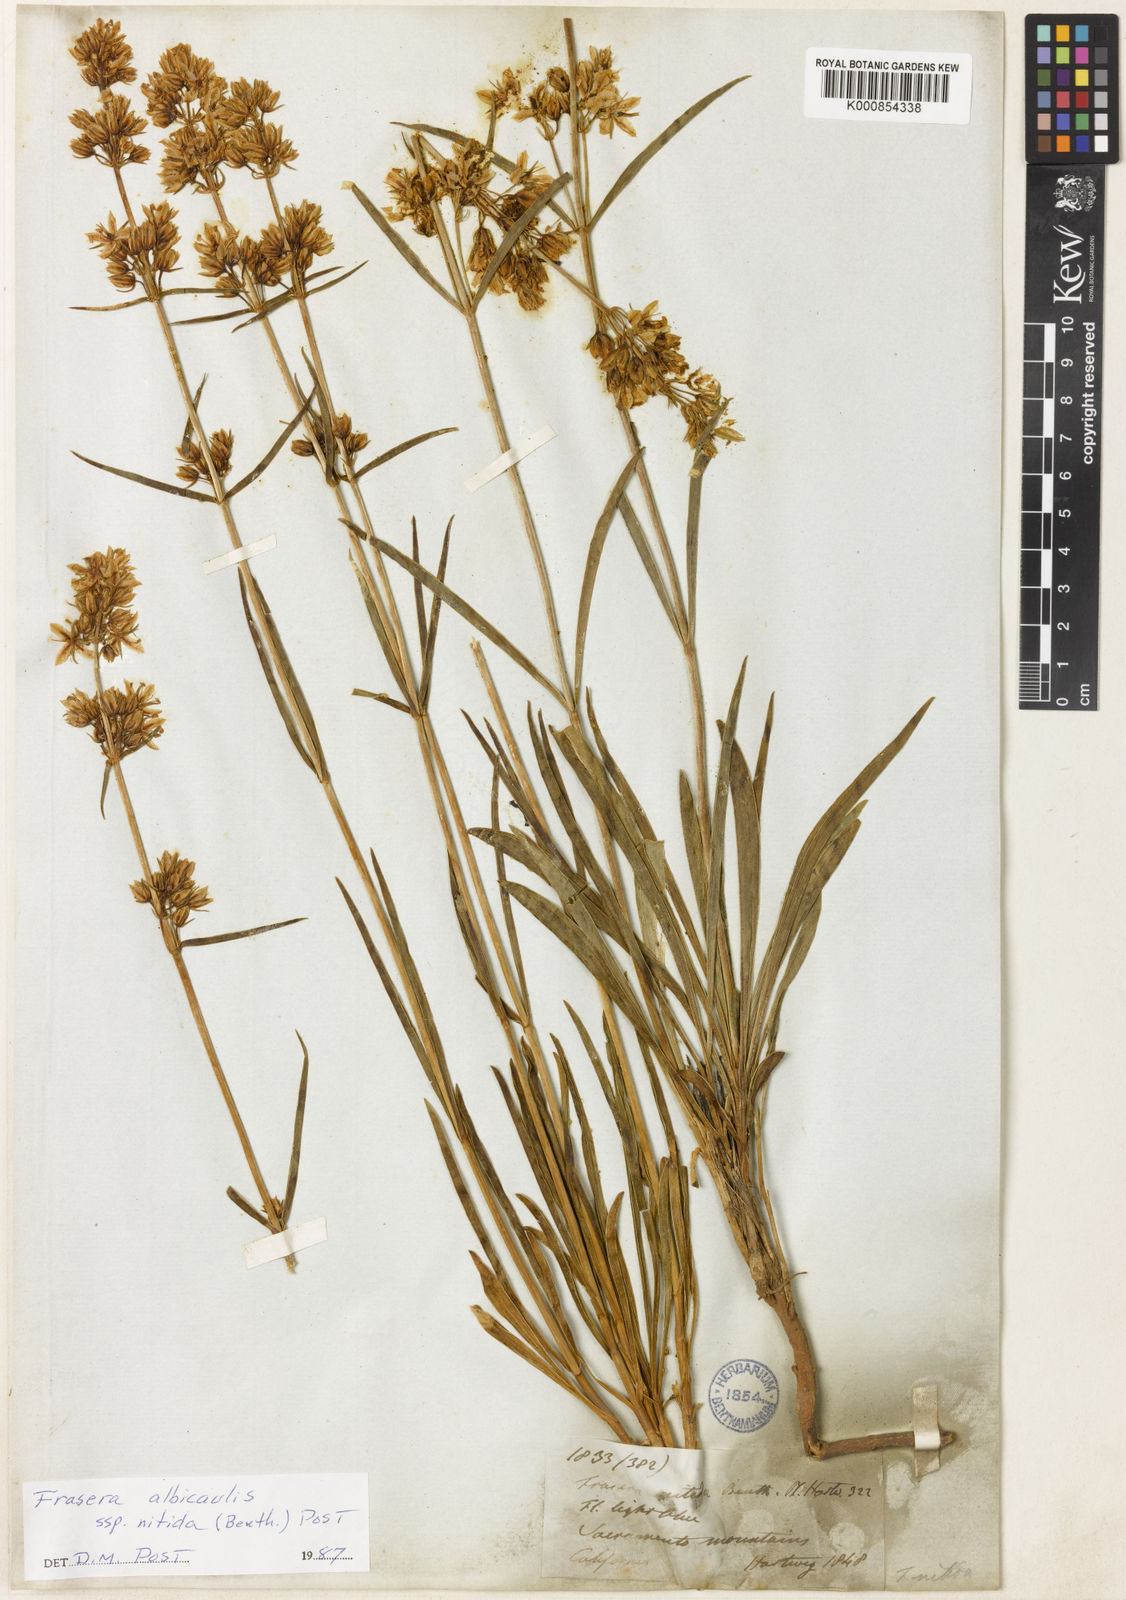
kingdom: Plantae
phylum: Tracheophyta
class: Magnoliopsida
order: Gentianales
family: Gentianaceae
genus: Frasera
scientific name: Frasera albicaulis
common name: Cusick's frasera
